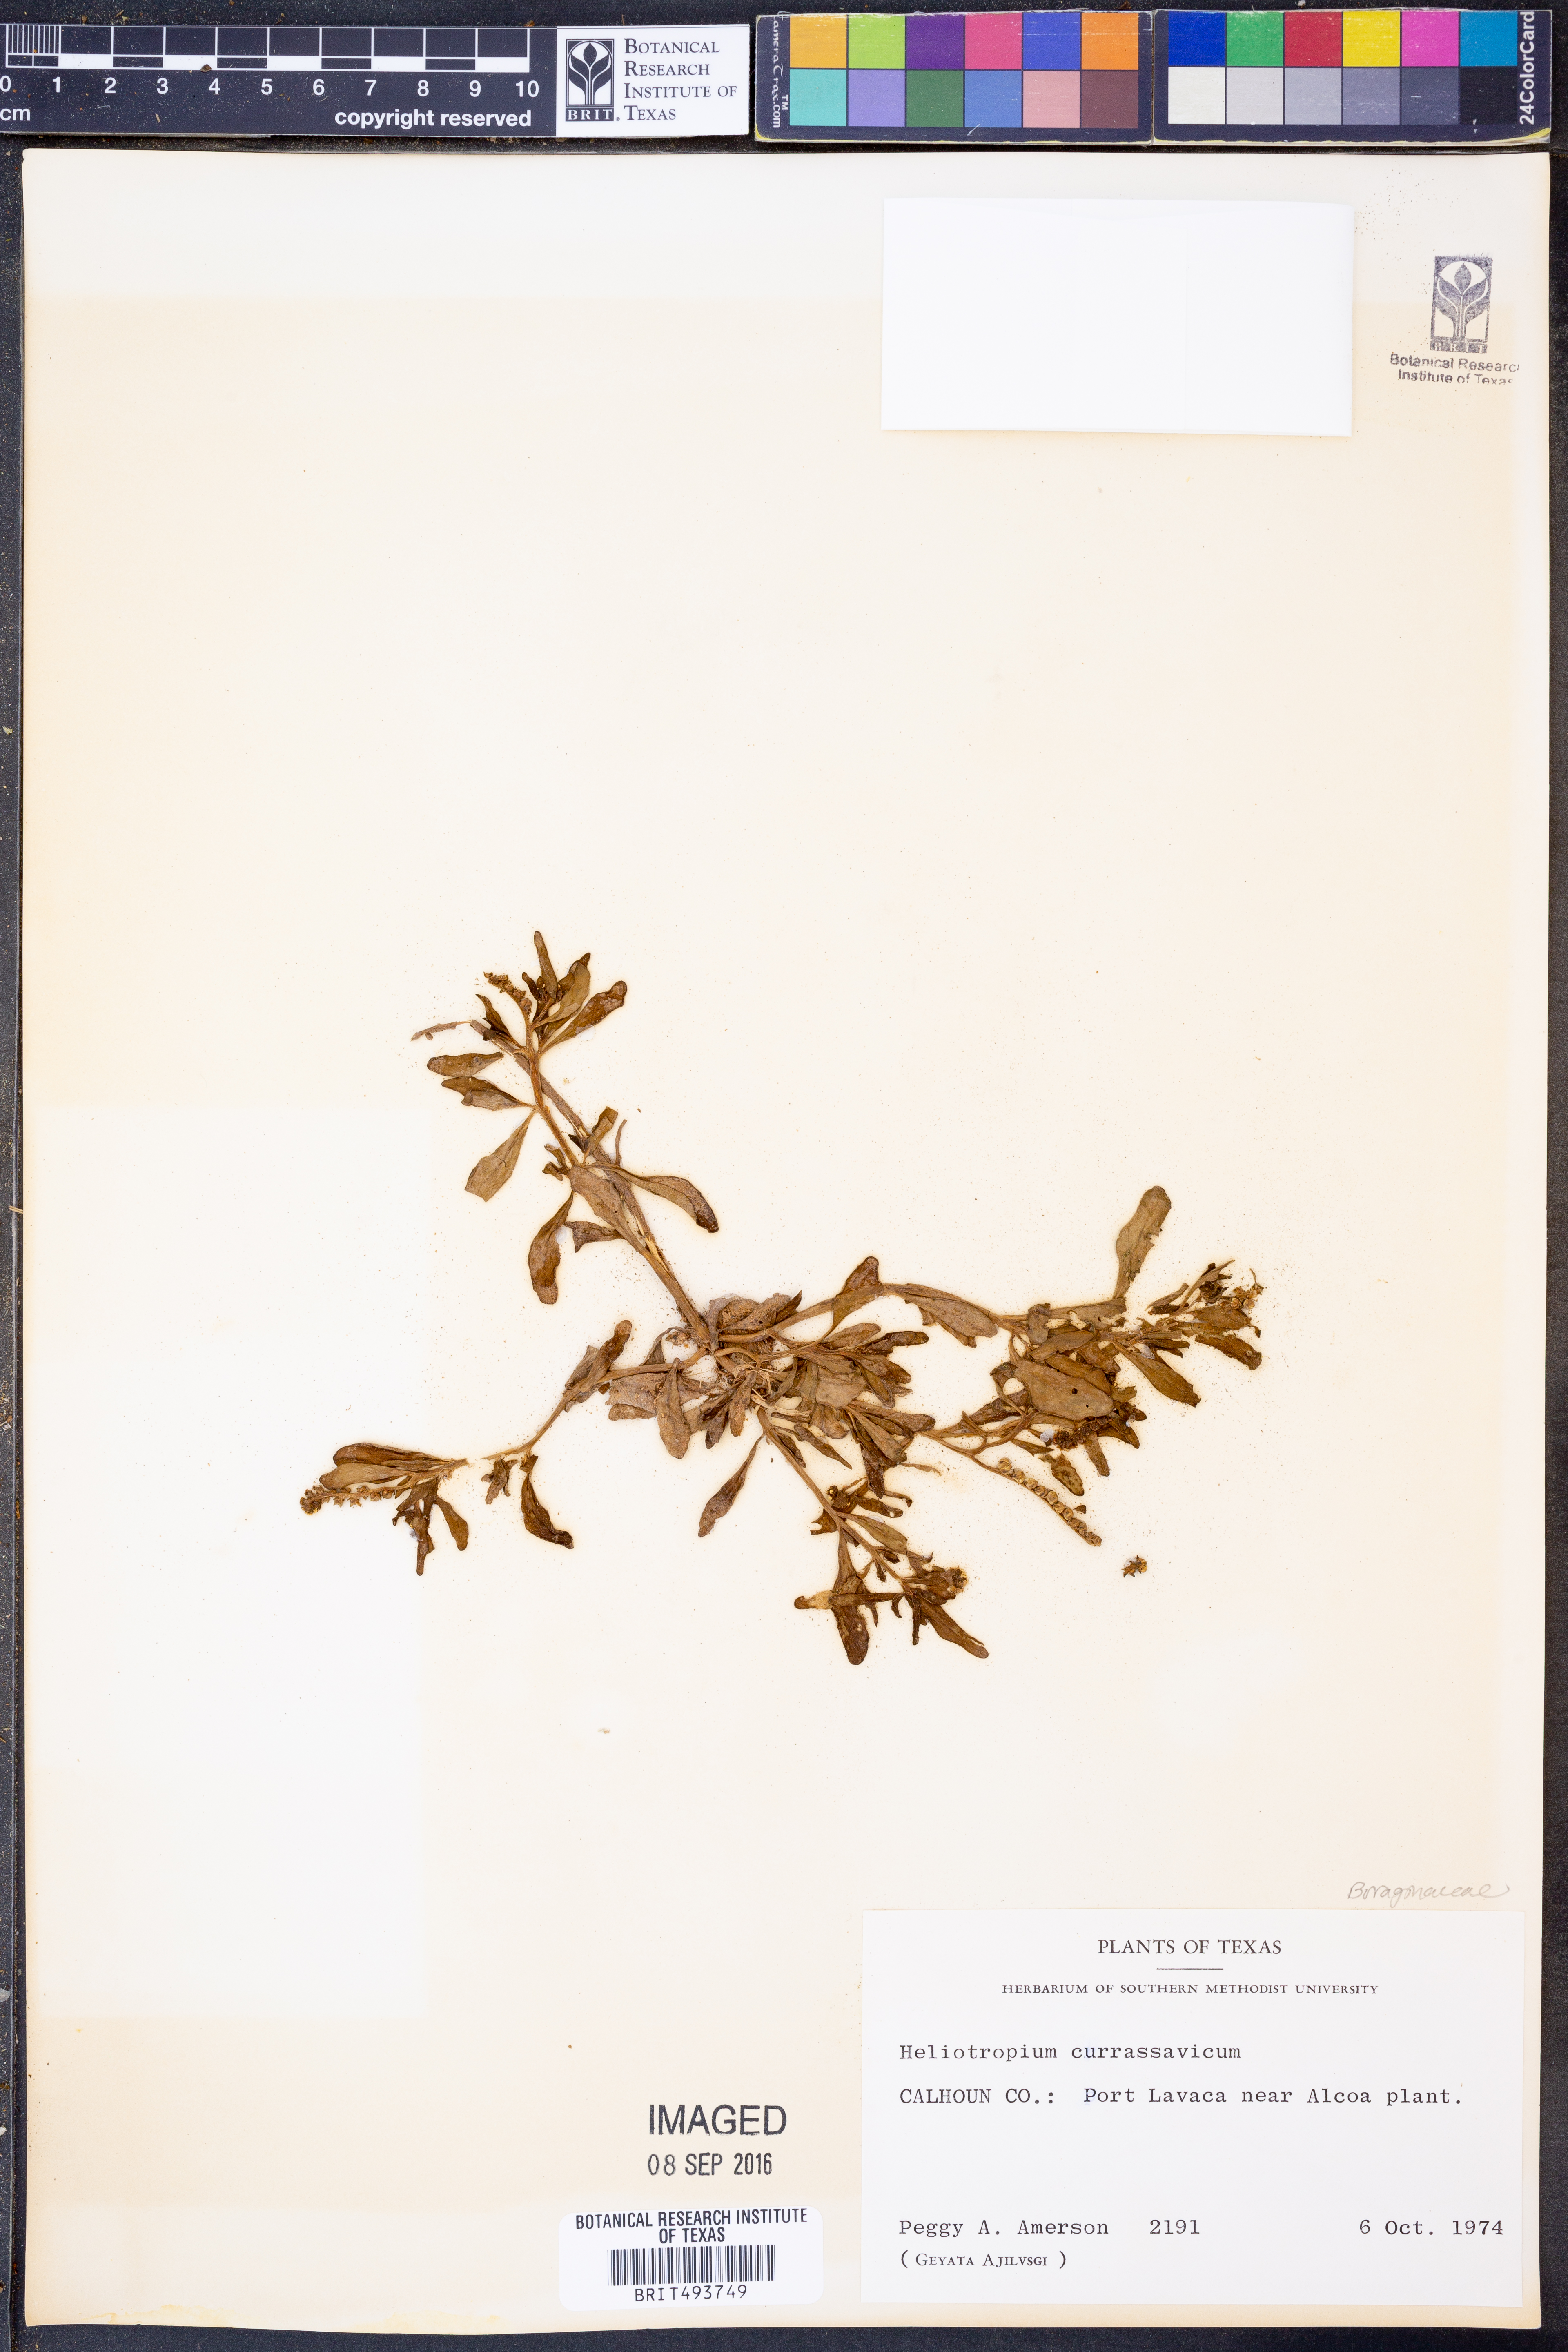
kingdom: Plantae
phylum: Tracheophyta
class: Magnoliopsida
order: Boraginales
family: Heliotropiaceae
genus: Heliotropium
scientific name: Heliotropium curassavicum
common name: Seaside heliotrope
